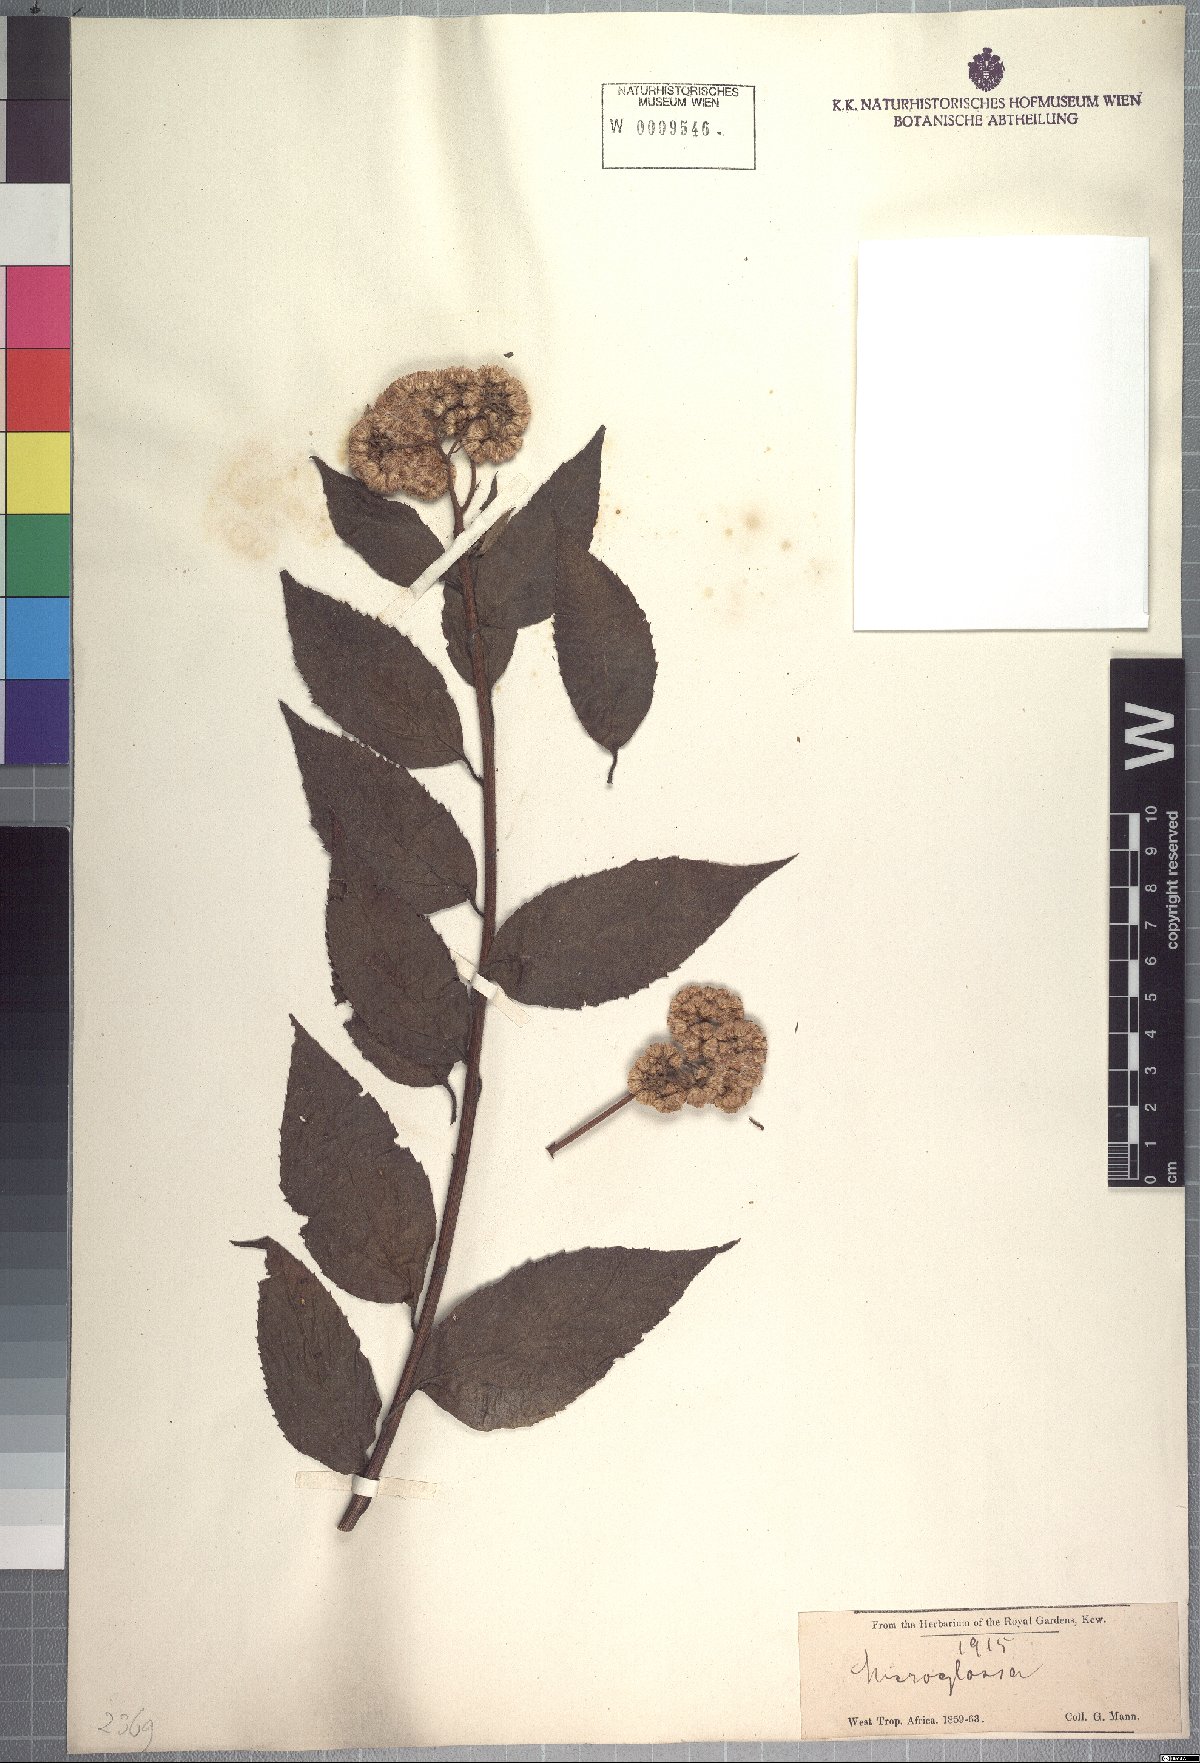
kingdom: Plantae
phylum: Tracheophyta
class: Magnoliopsida
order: Asterales
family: Asteraceae
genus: Microglossa
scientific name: Microglossa densiflora
